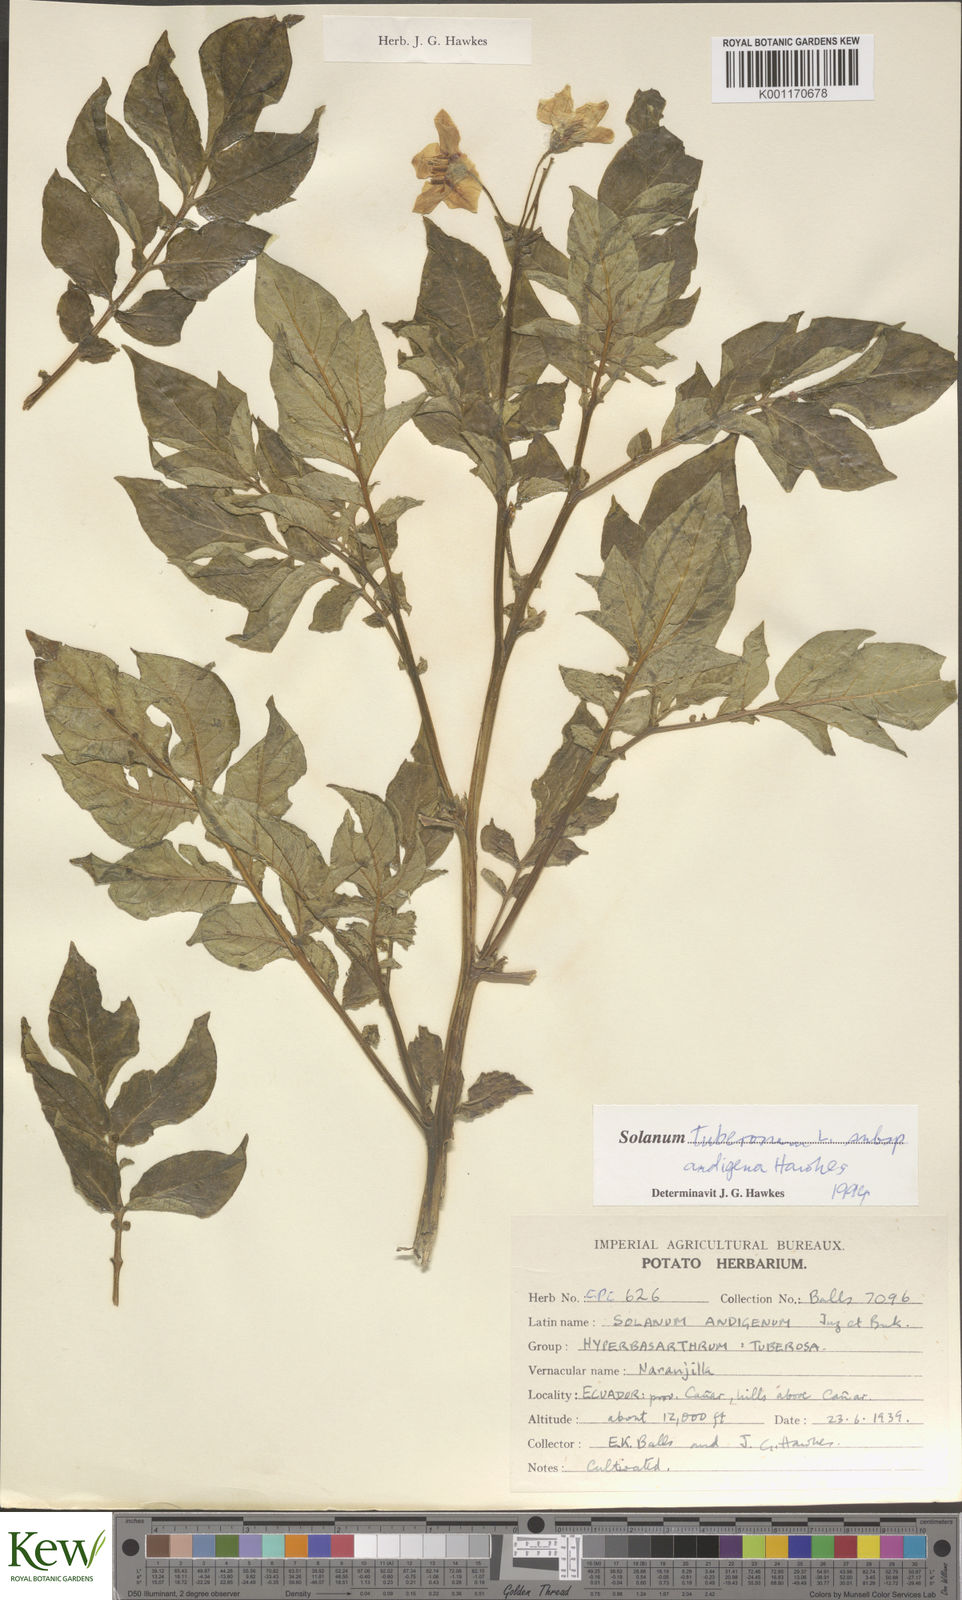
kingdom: Plantae
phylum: Tracheophyta
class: Magnoliopsida
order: Solanales
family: Solanaceae
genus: Solanum
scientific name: Solanum tuberosum
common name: Potato
